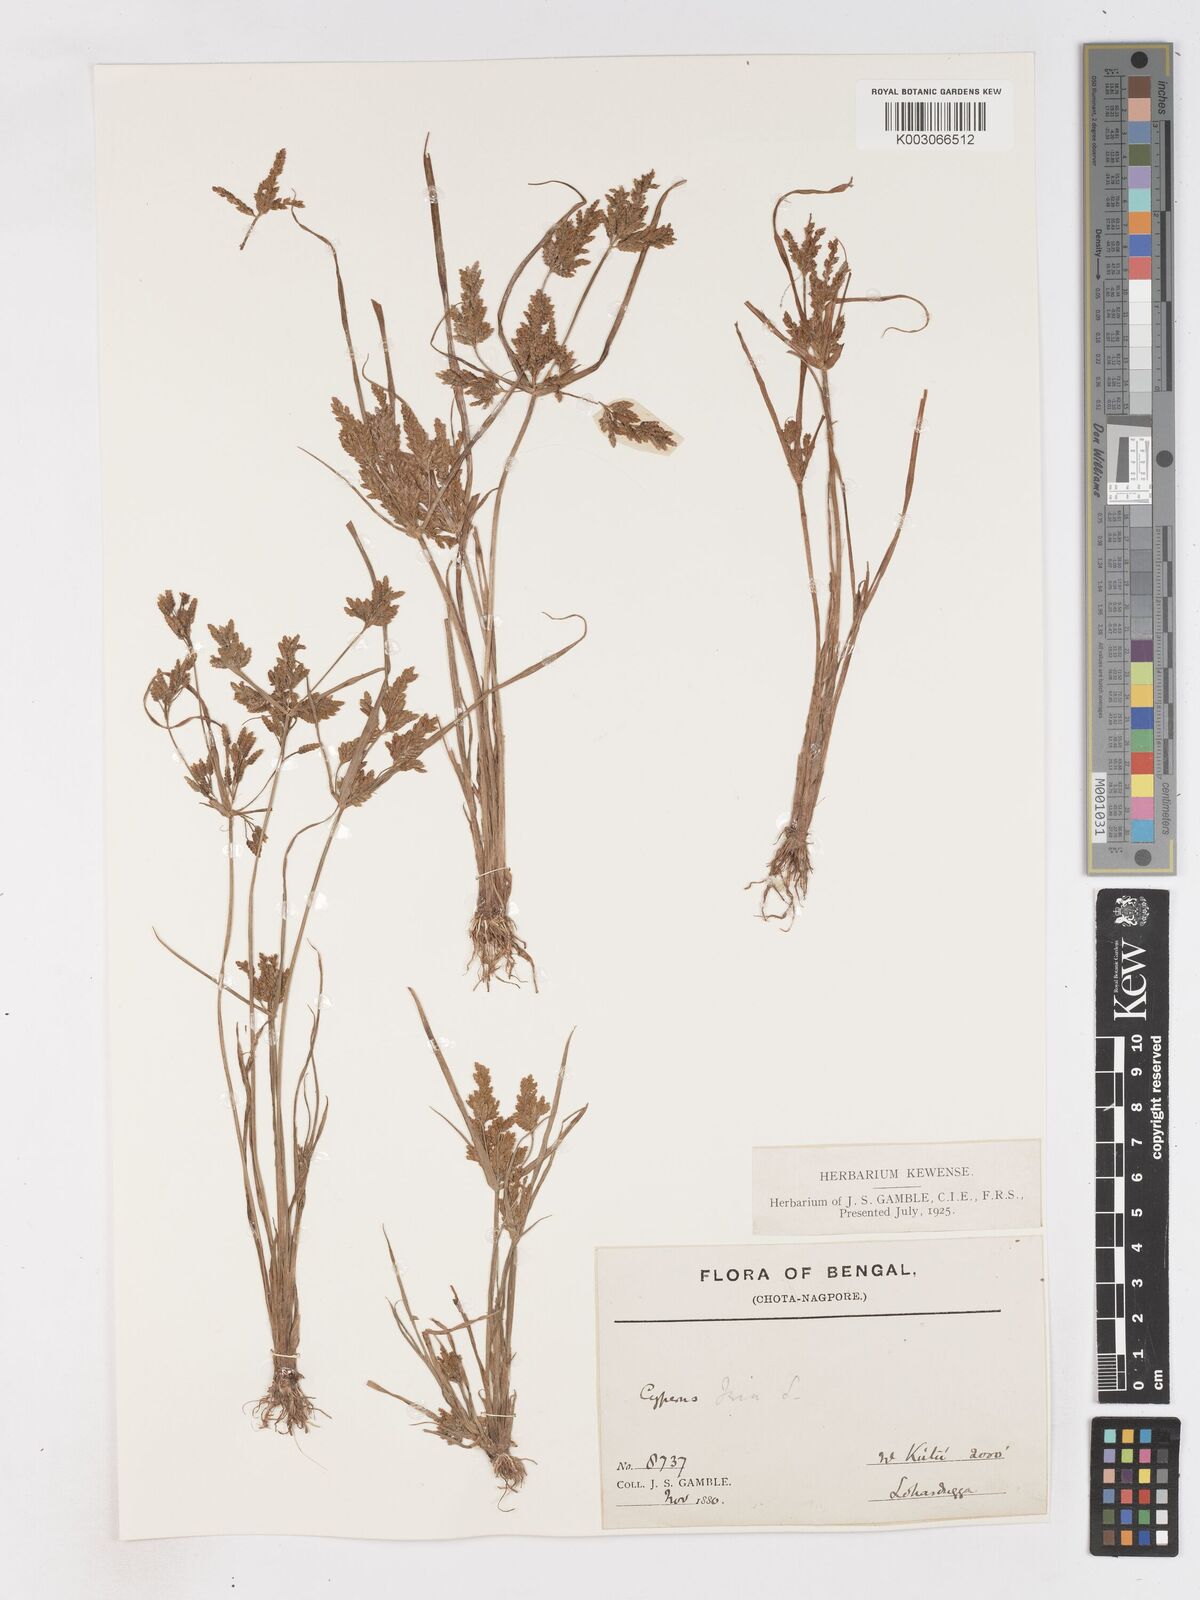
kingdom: Plantae
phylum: Tracheophyta
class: Liliopsida
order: Poales
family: Cyperaceae
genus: Cyperus
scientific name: Cyperus iria
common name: Ricefield flatsedge
